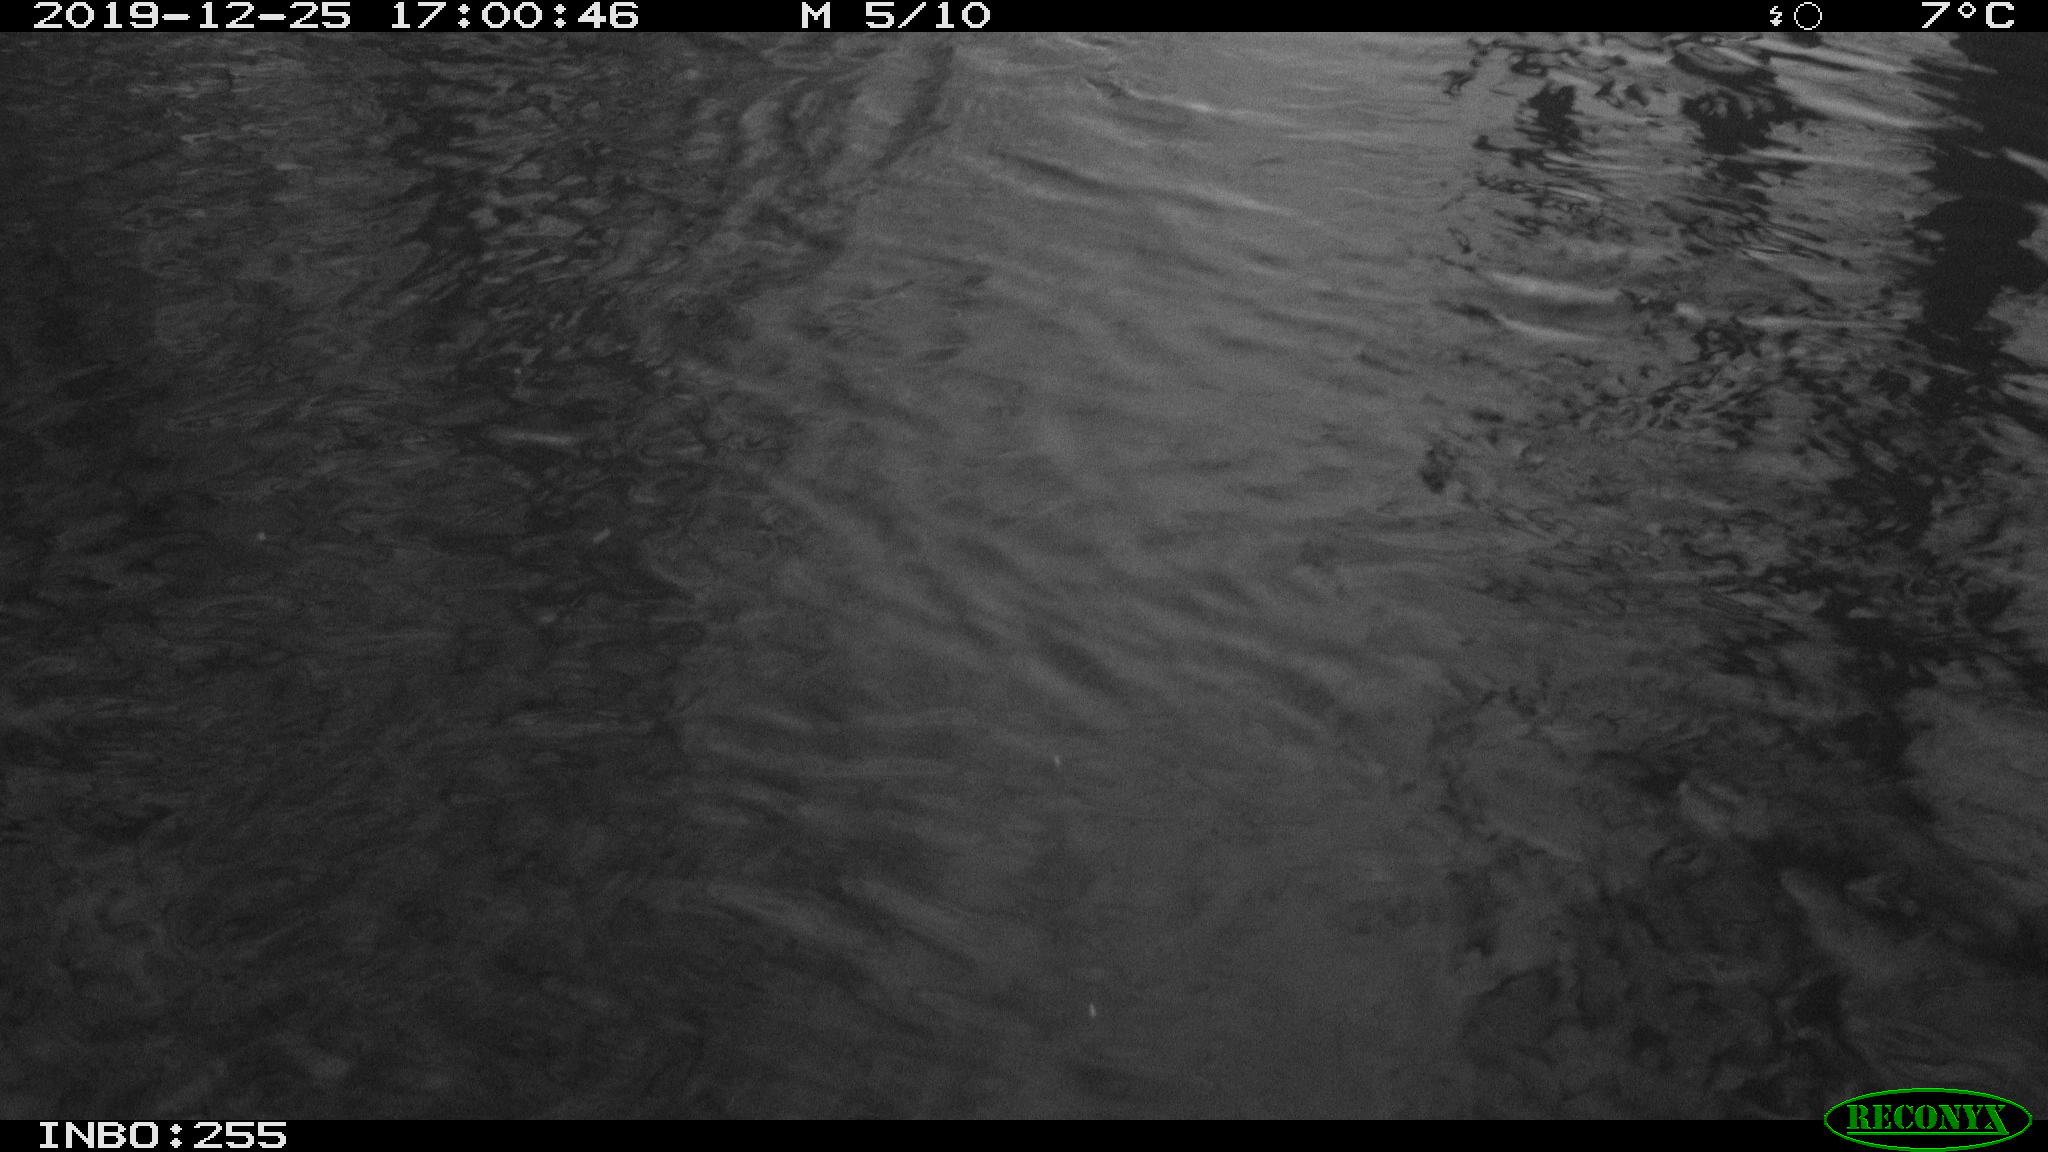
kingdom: Animalia
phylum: Chordata
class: Aves
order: Anseriformes
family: Anatidae
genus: Anas
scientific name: Anas platyrhynchos
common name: Mallard
